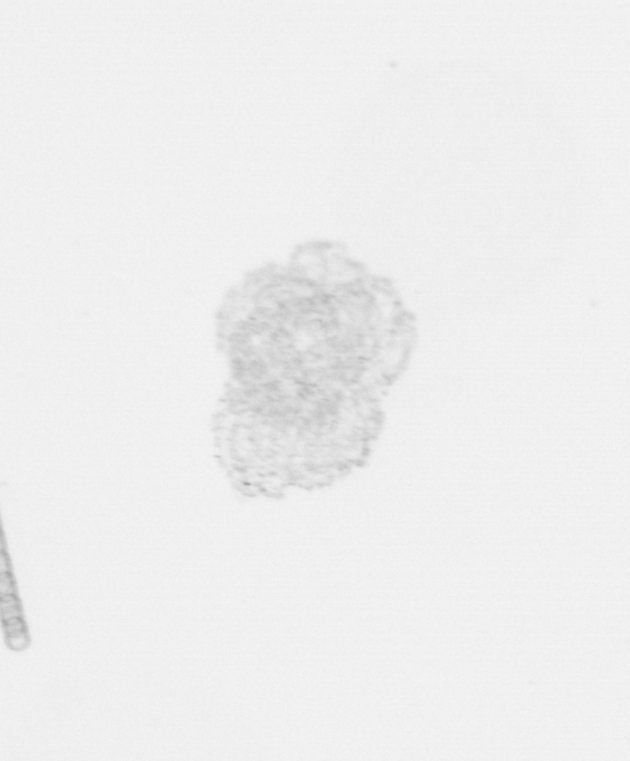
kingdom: Chromista
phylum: Ochrophyta
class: Bacillariophyceae
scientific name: Bacillariophyceae
